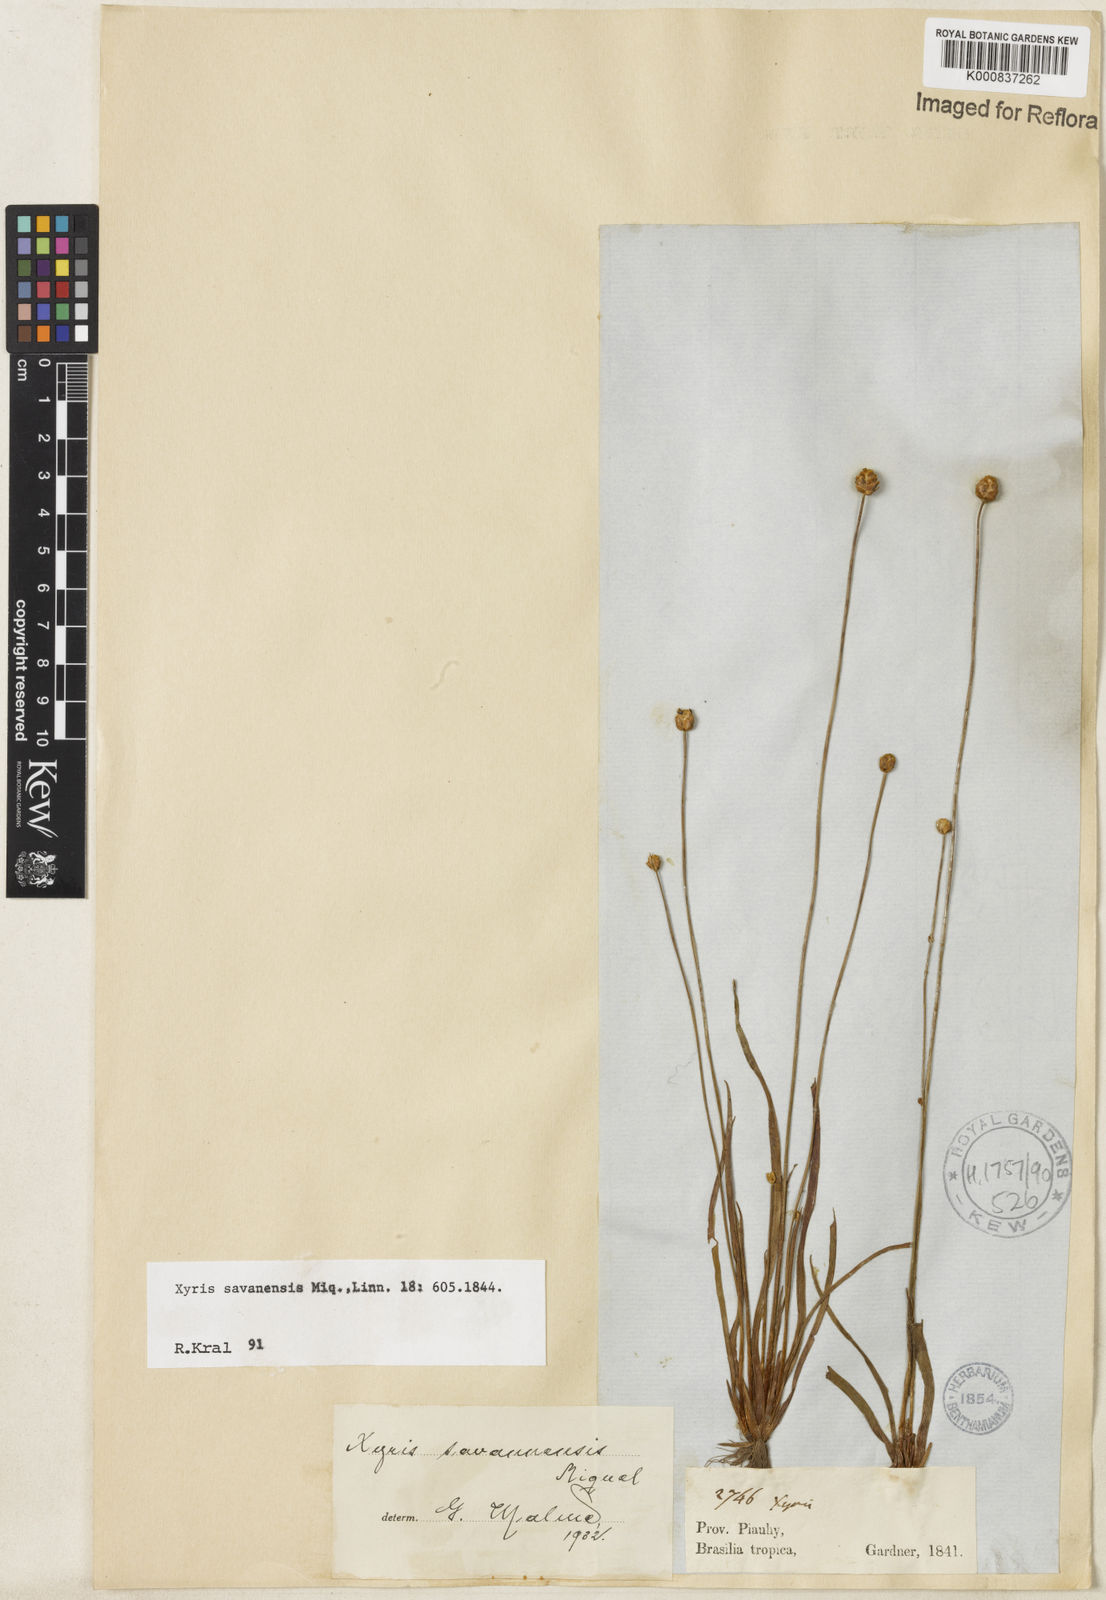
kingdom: Plantae
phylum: Tracheophyta
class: Liliopsida
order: Poales
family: Xyridaceae
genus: Xyris
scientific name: Xyris savanensis
